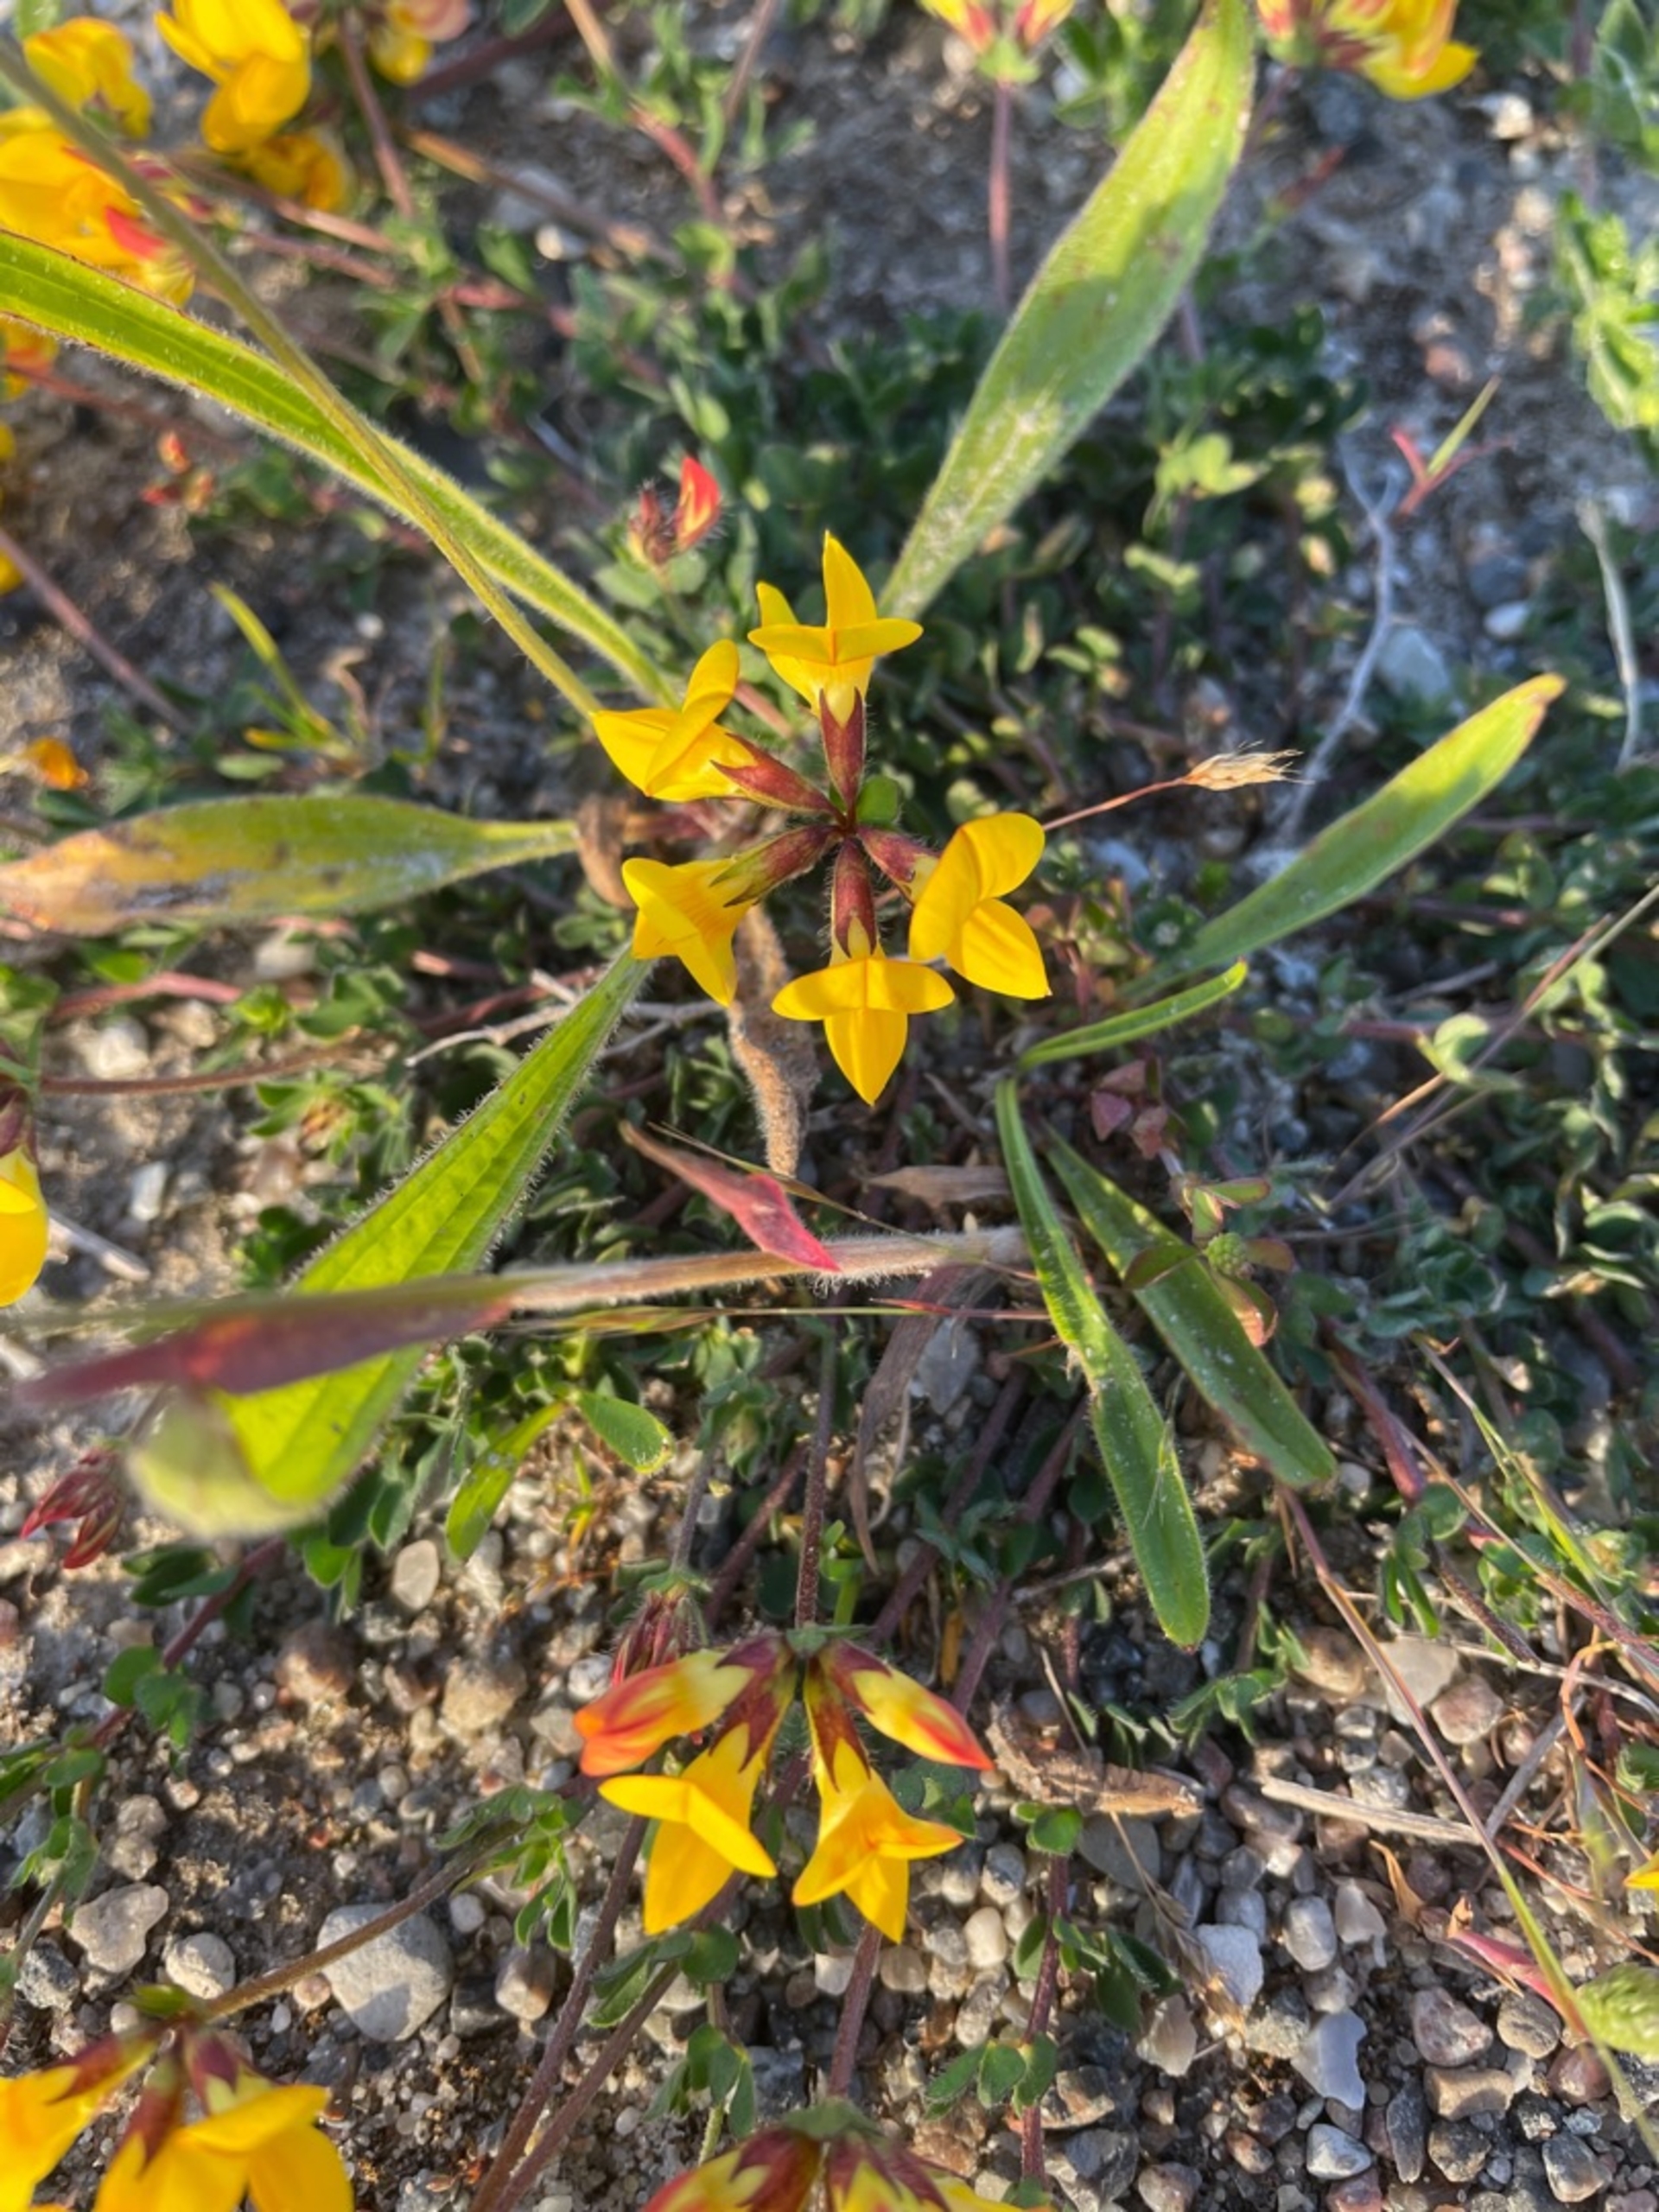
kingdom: Plantae
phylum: Tracheophyta
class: Magnoliopsida
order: Fabales
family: Fabaceae
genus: Lotus
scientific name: Lotus corniculatus
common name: Almindelig kællingetand
